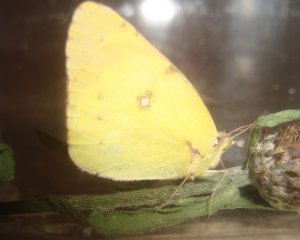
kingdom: Animalia
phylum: Arthropoda
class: Insecta
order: Lepidoptera
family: Pieridae
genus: Colias
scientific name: Colias philodice
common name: Clouded Sulphur
